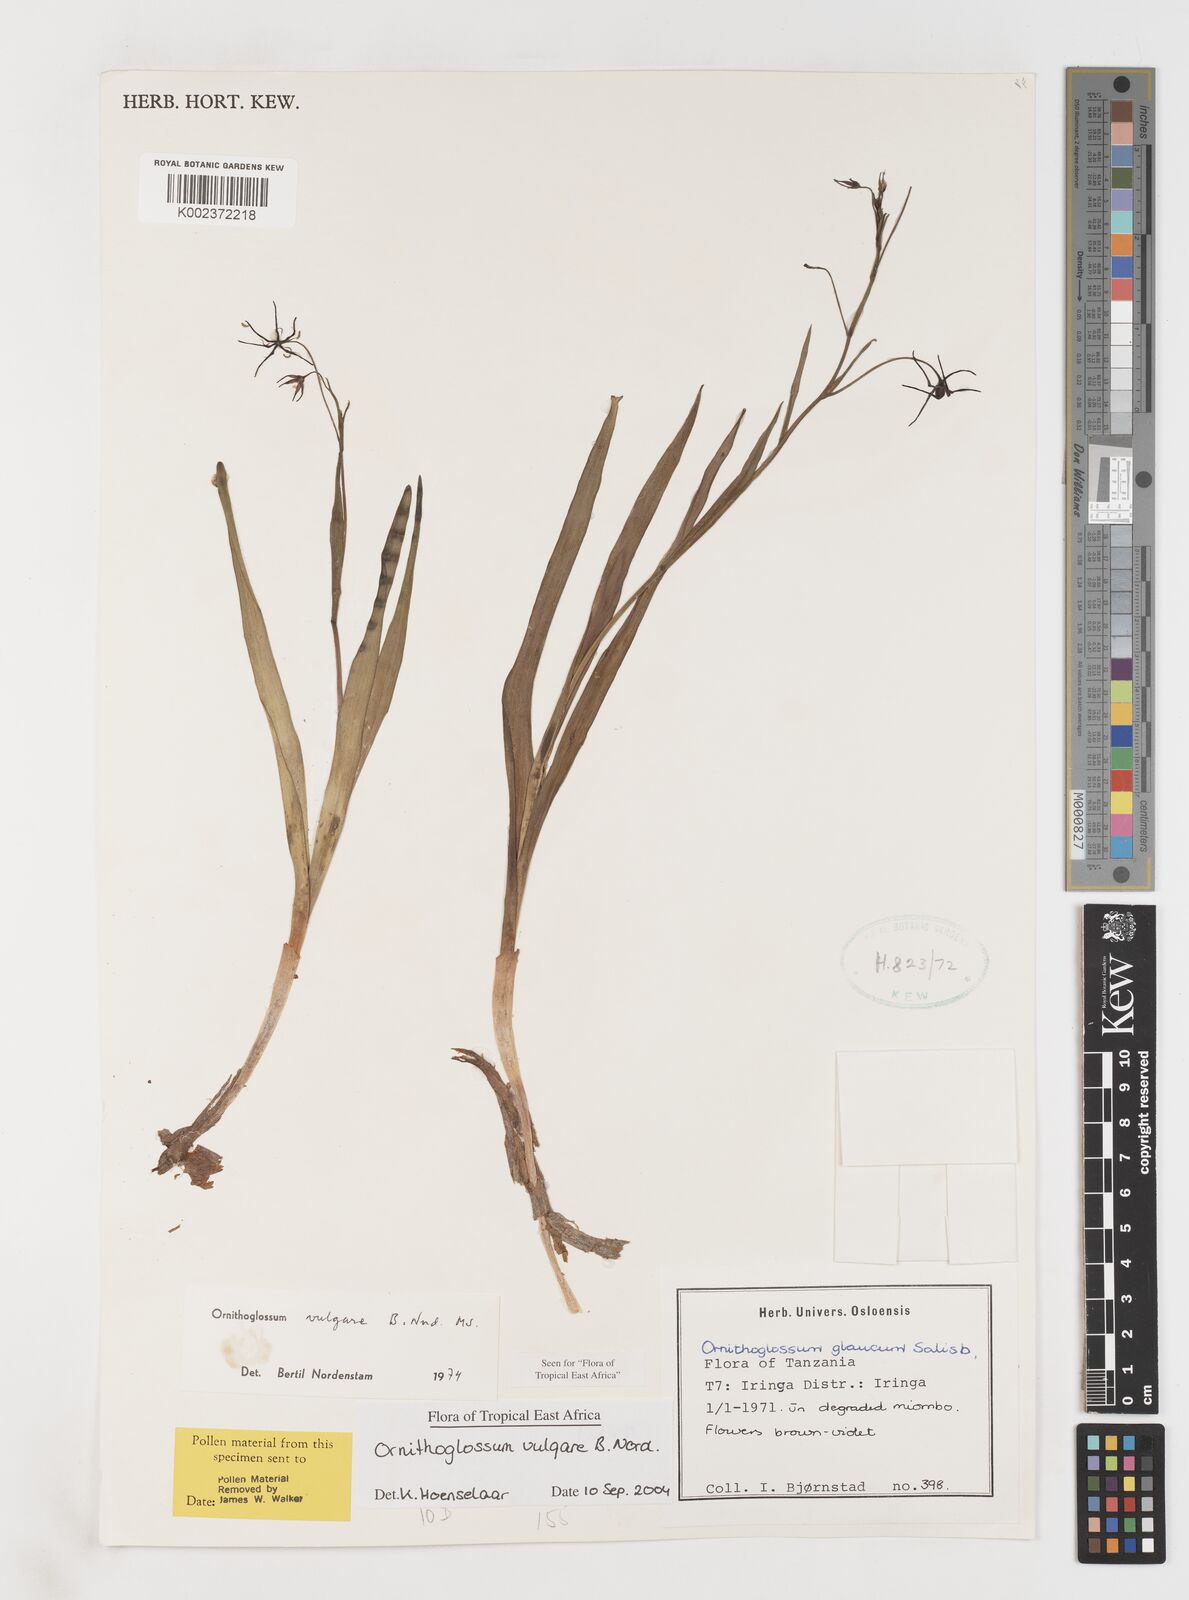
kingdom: Plantae
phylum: Tracheophyta
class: Liliopsida
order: Liliales
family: Colchicaceae
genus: Ornithoglossum
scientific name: Ornithoglossum vulgare
